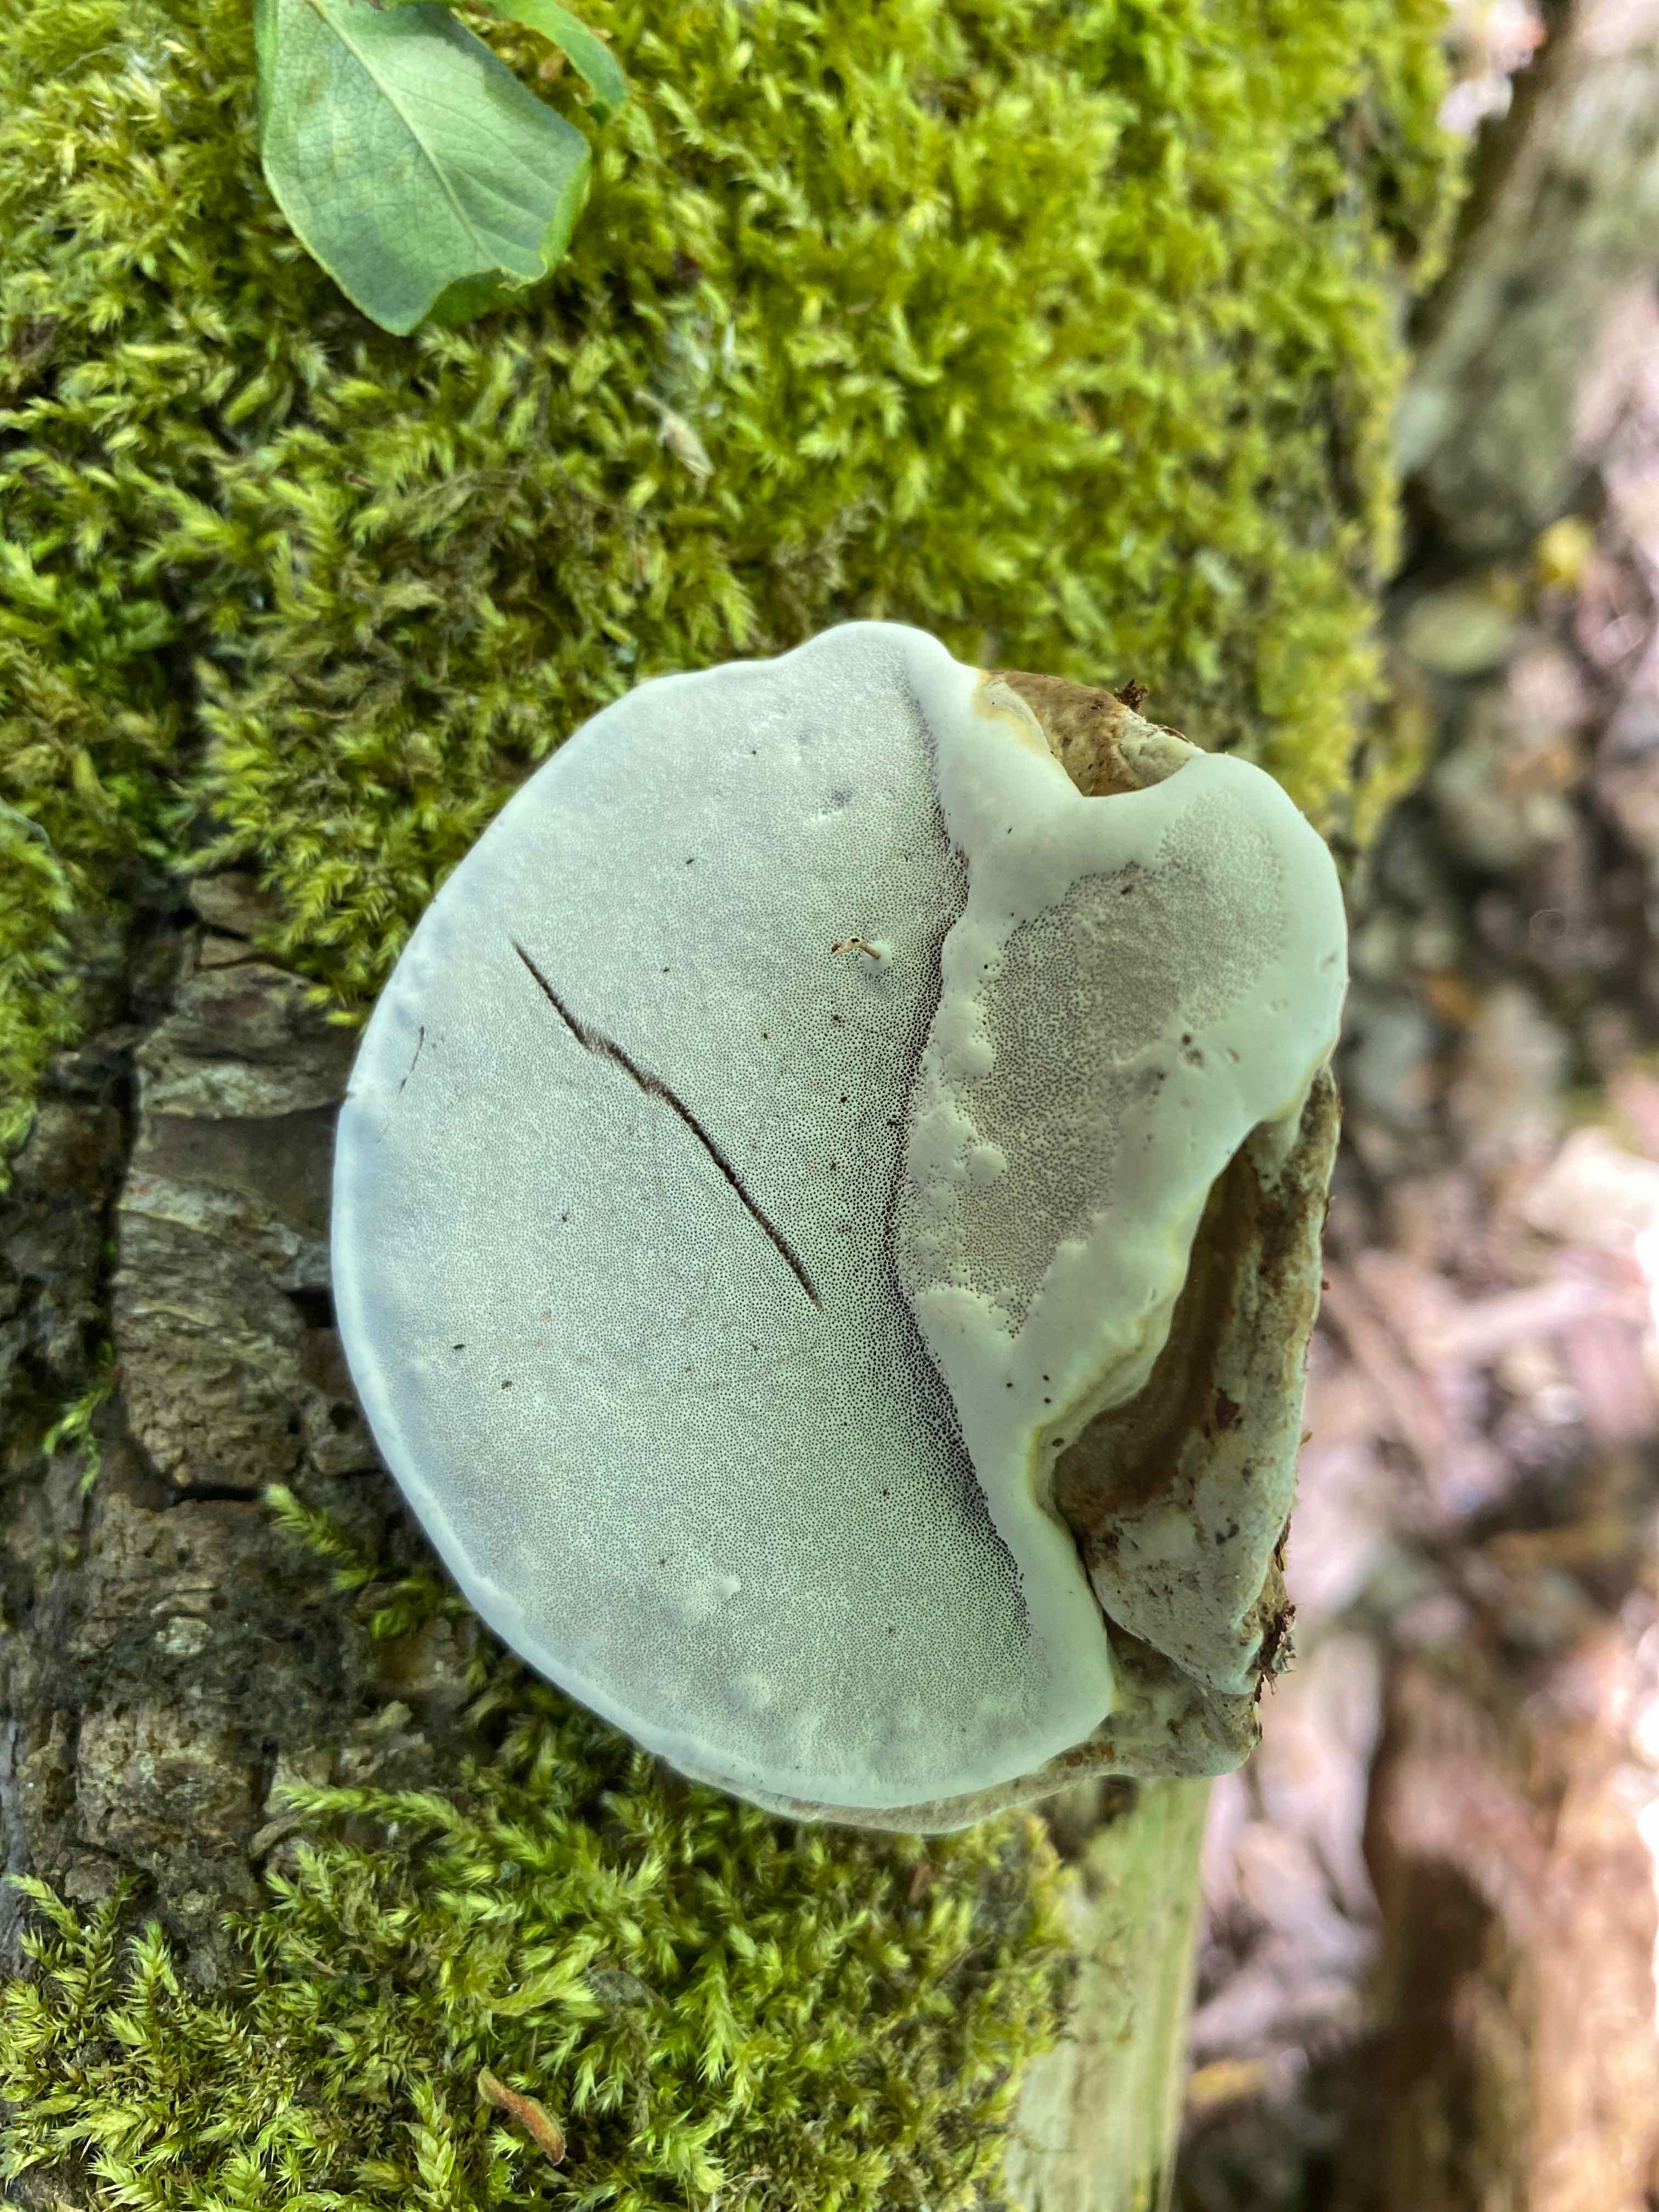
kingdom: Fungi
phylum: Basidiomycota
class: Agaricomycetes
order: Polyporales
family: Polyporaceae
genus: Ganoderma
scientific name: Ganoderma applanatum
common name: flad lakporesvamp
